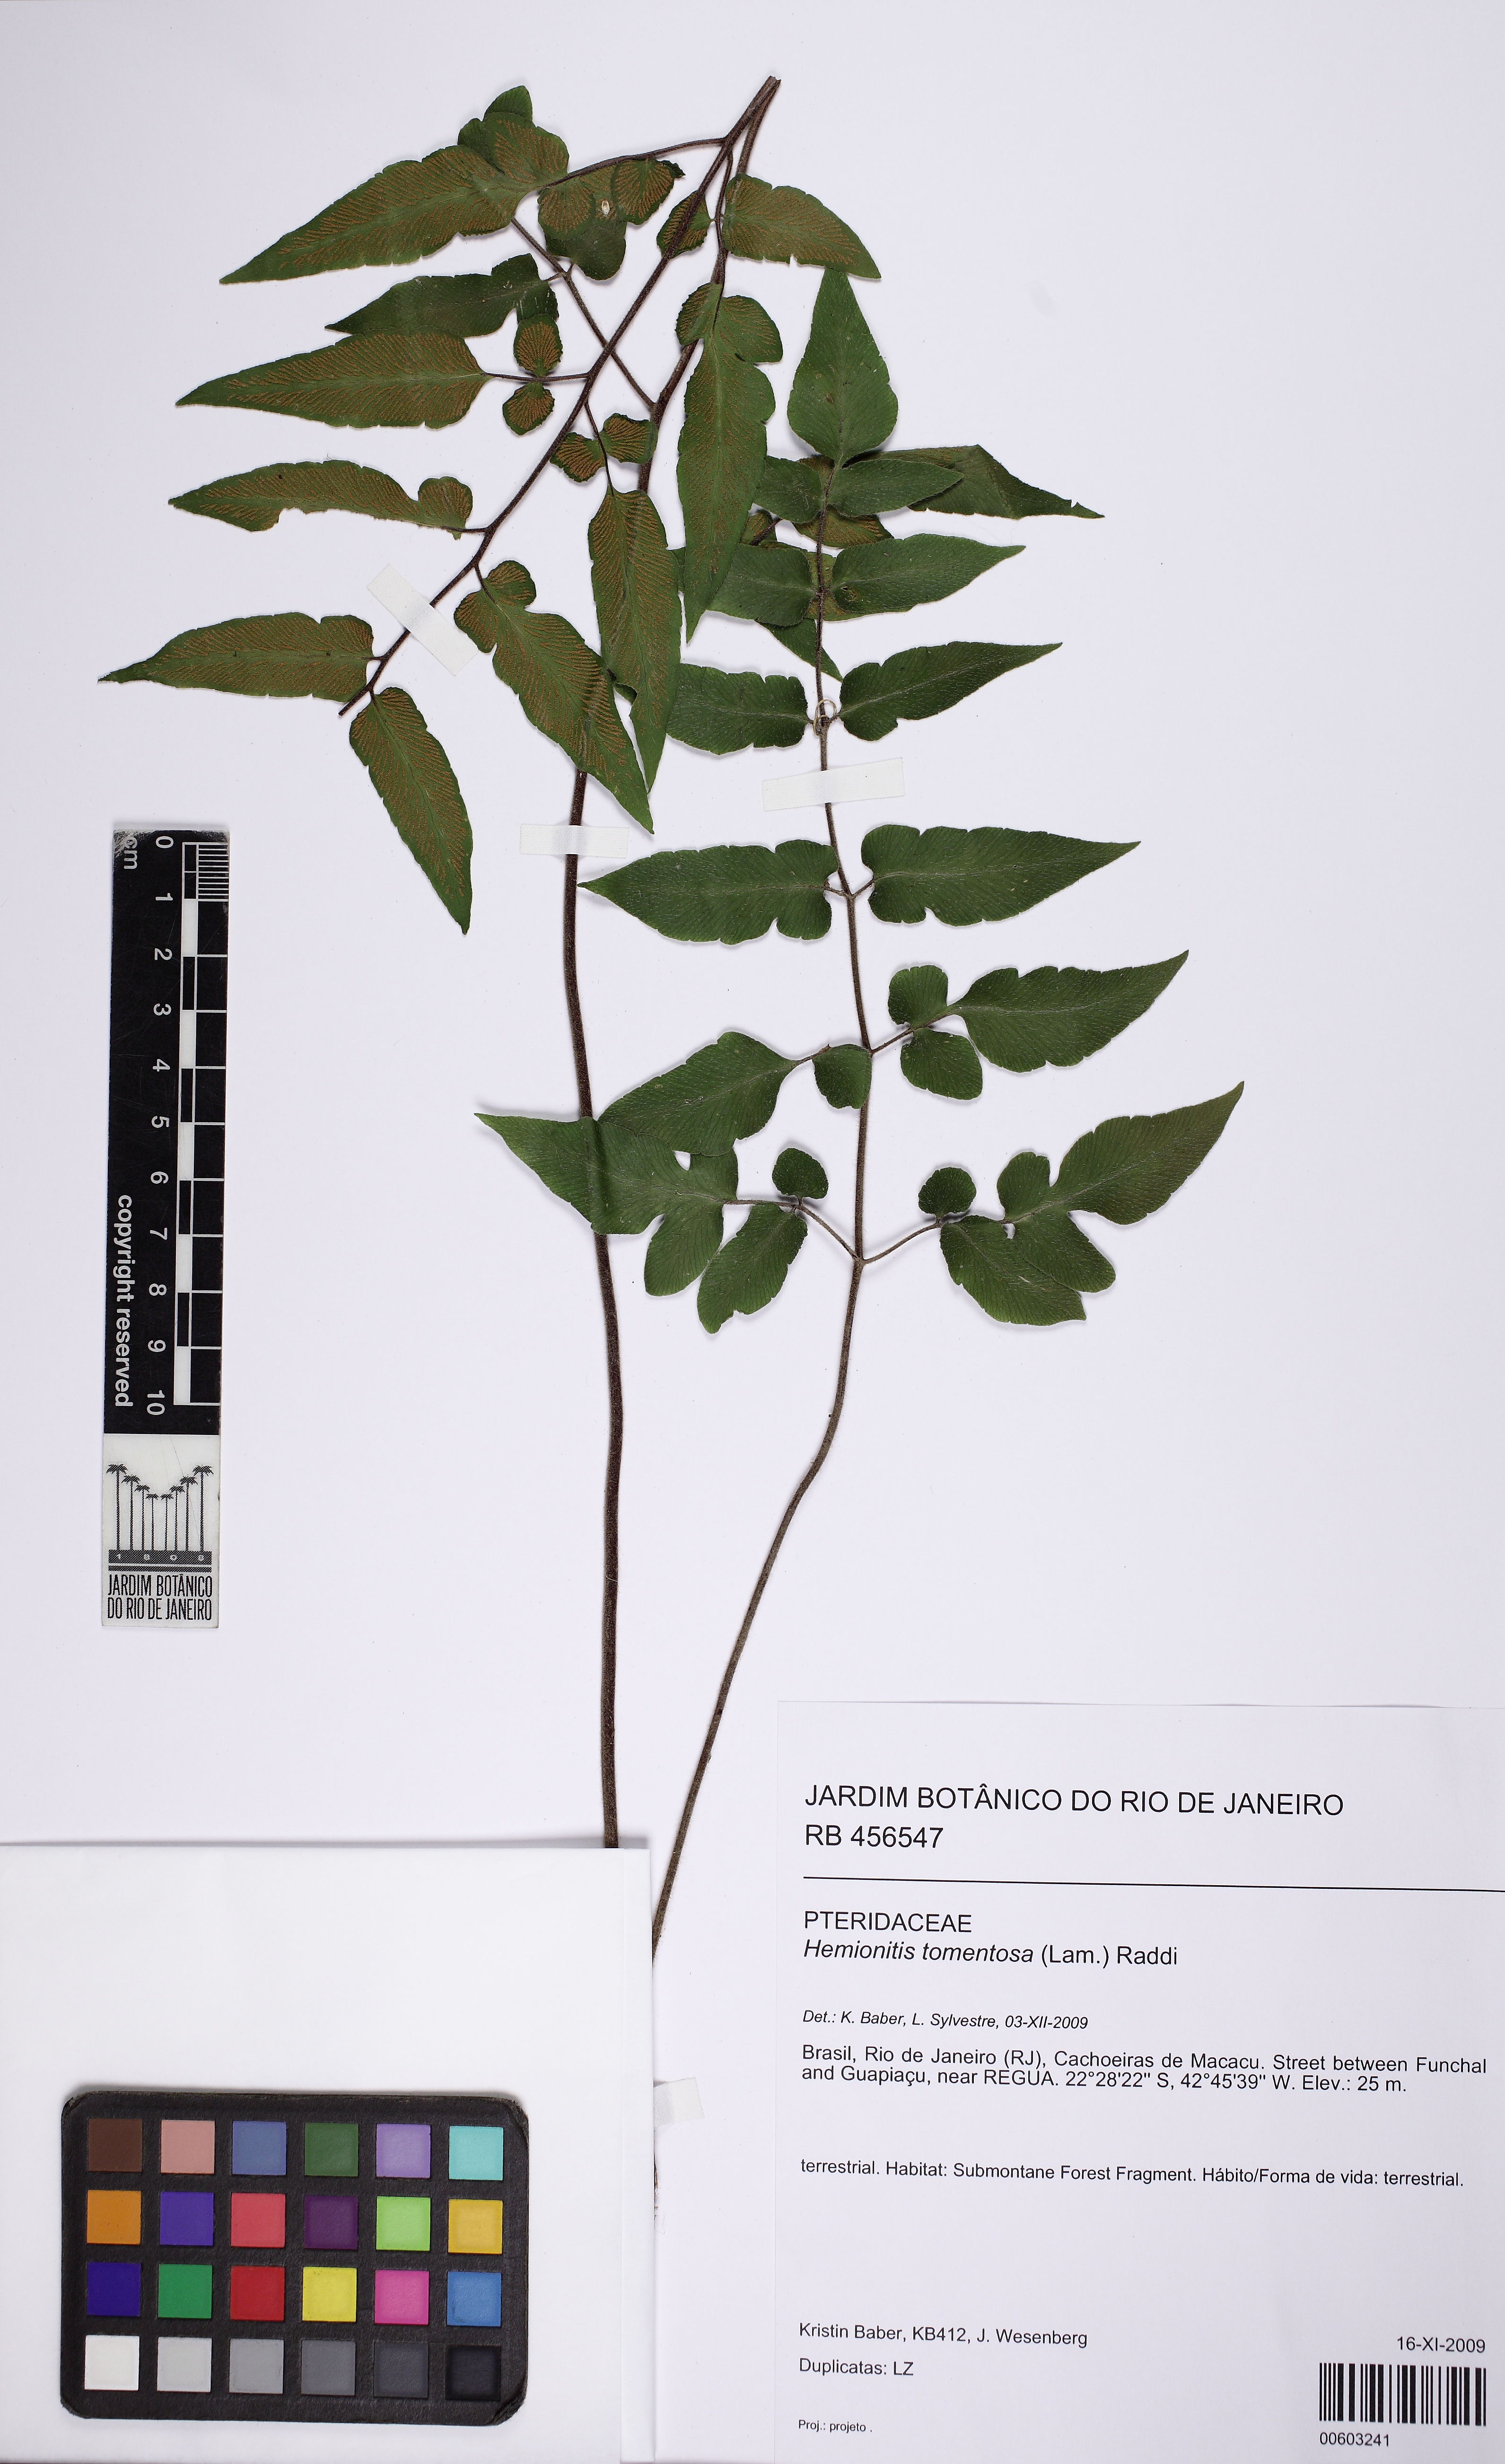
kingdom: Plantae
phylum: Tracheophyta
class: Polypodiopsida
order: Polypodiales
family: Pteridaceae
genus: Hemionitis
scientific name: Hemionitis tomentosa
